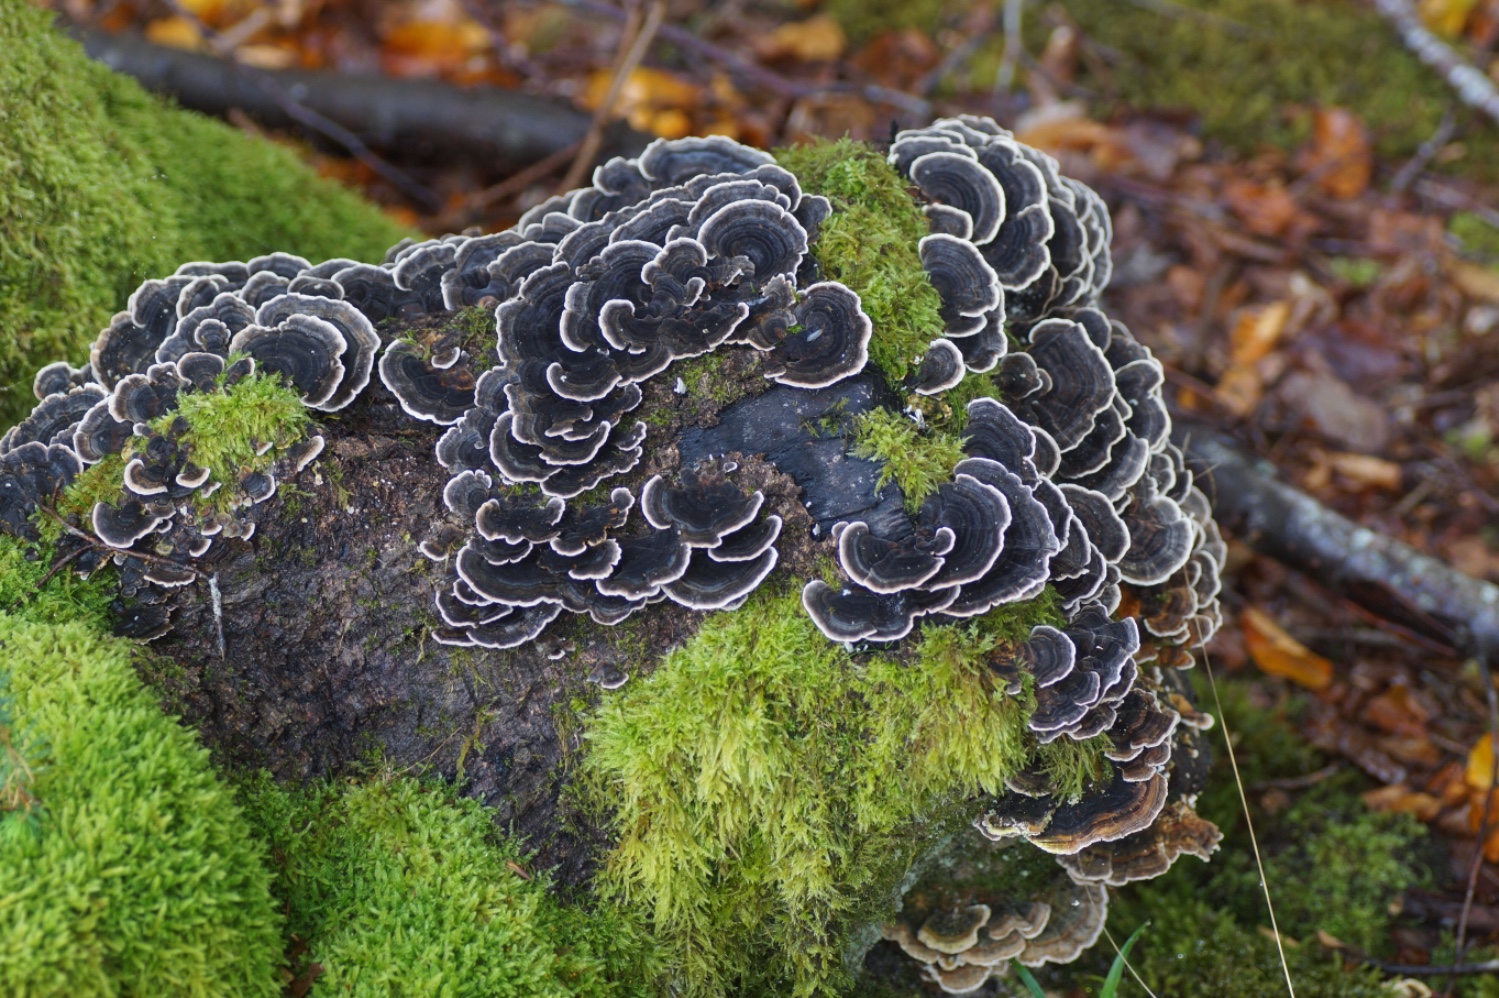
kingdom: Fungi
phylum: Basidiomycota
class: Agaricomycetes
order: Polyporales
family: Polyporaceae
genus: Trametes
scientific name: Trametes versicolor
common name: broget læderporesvamp
